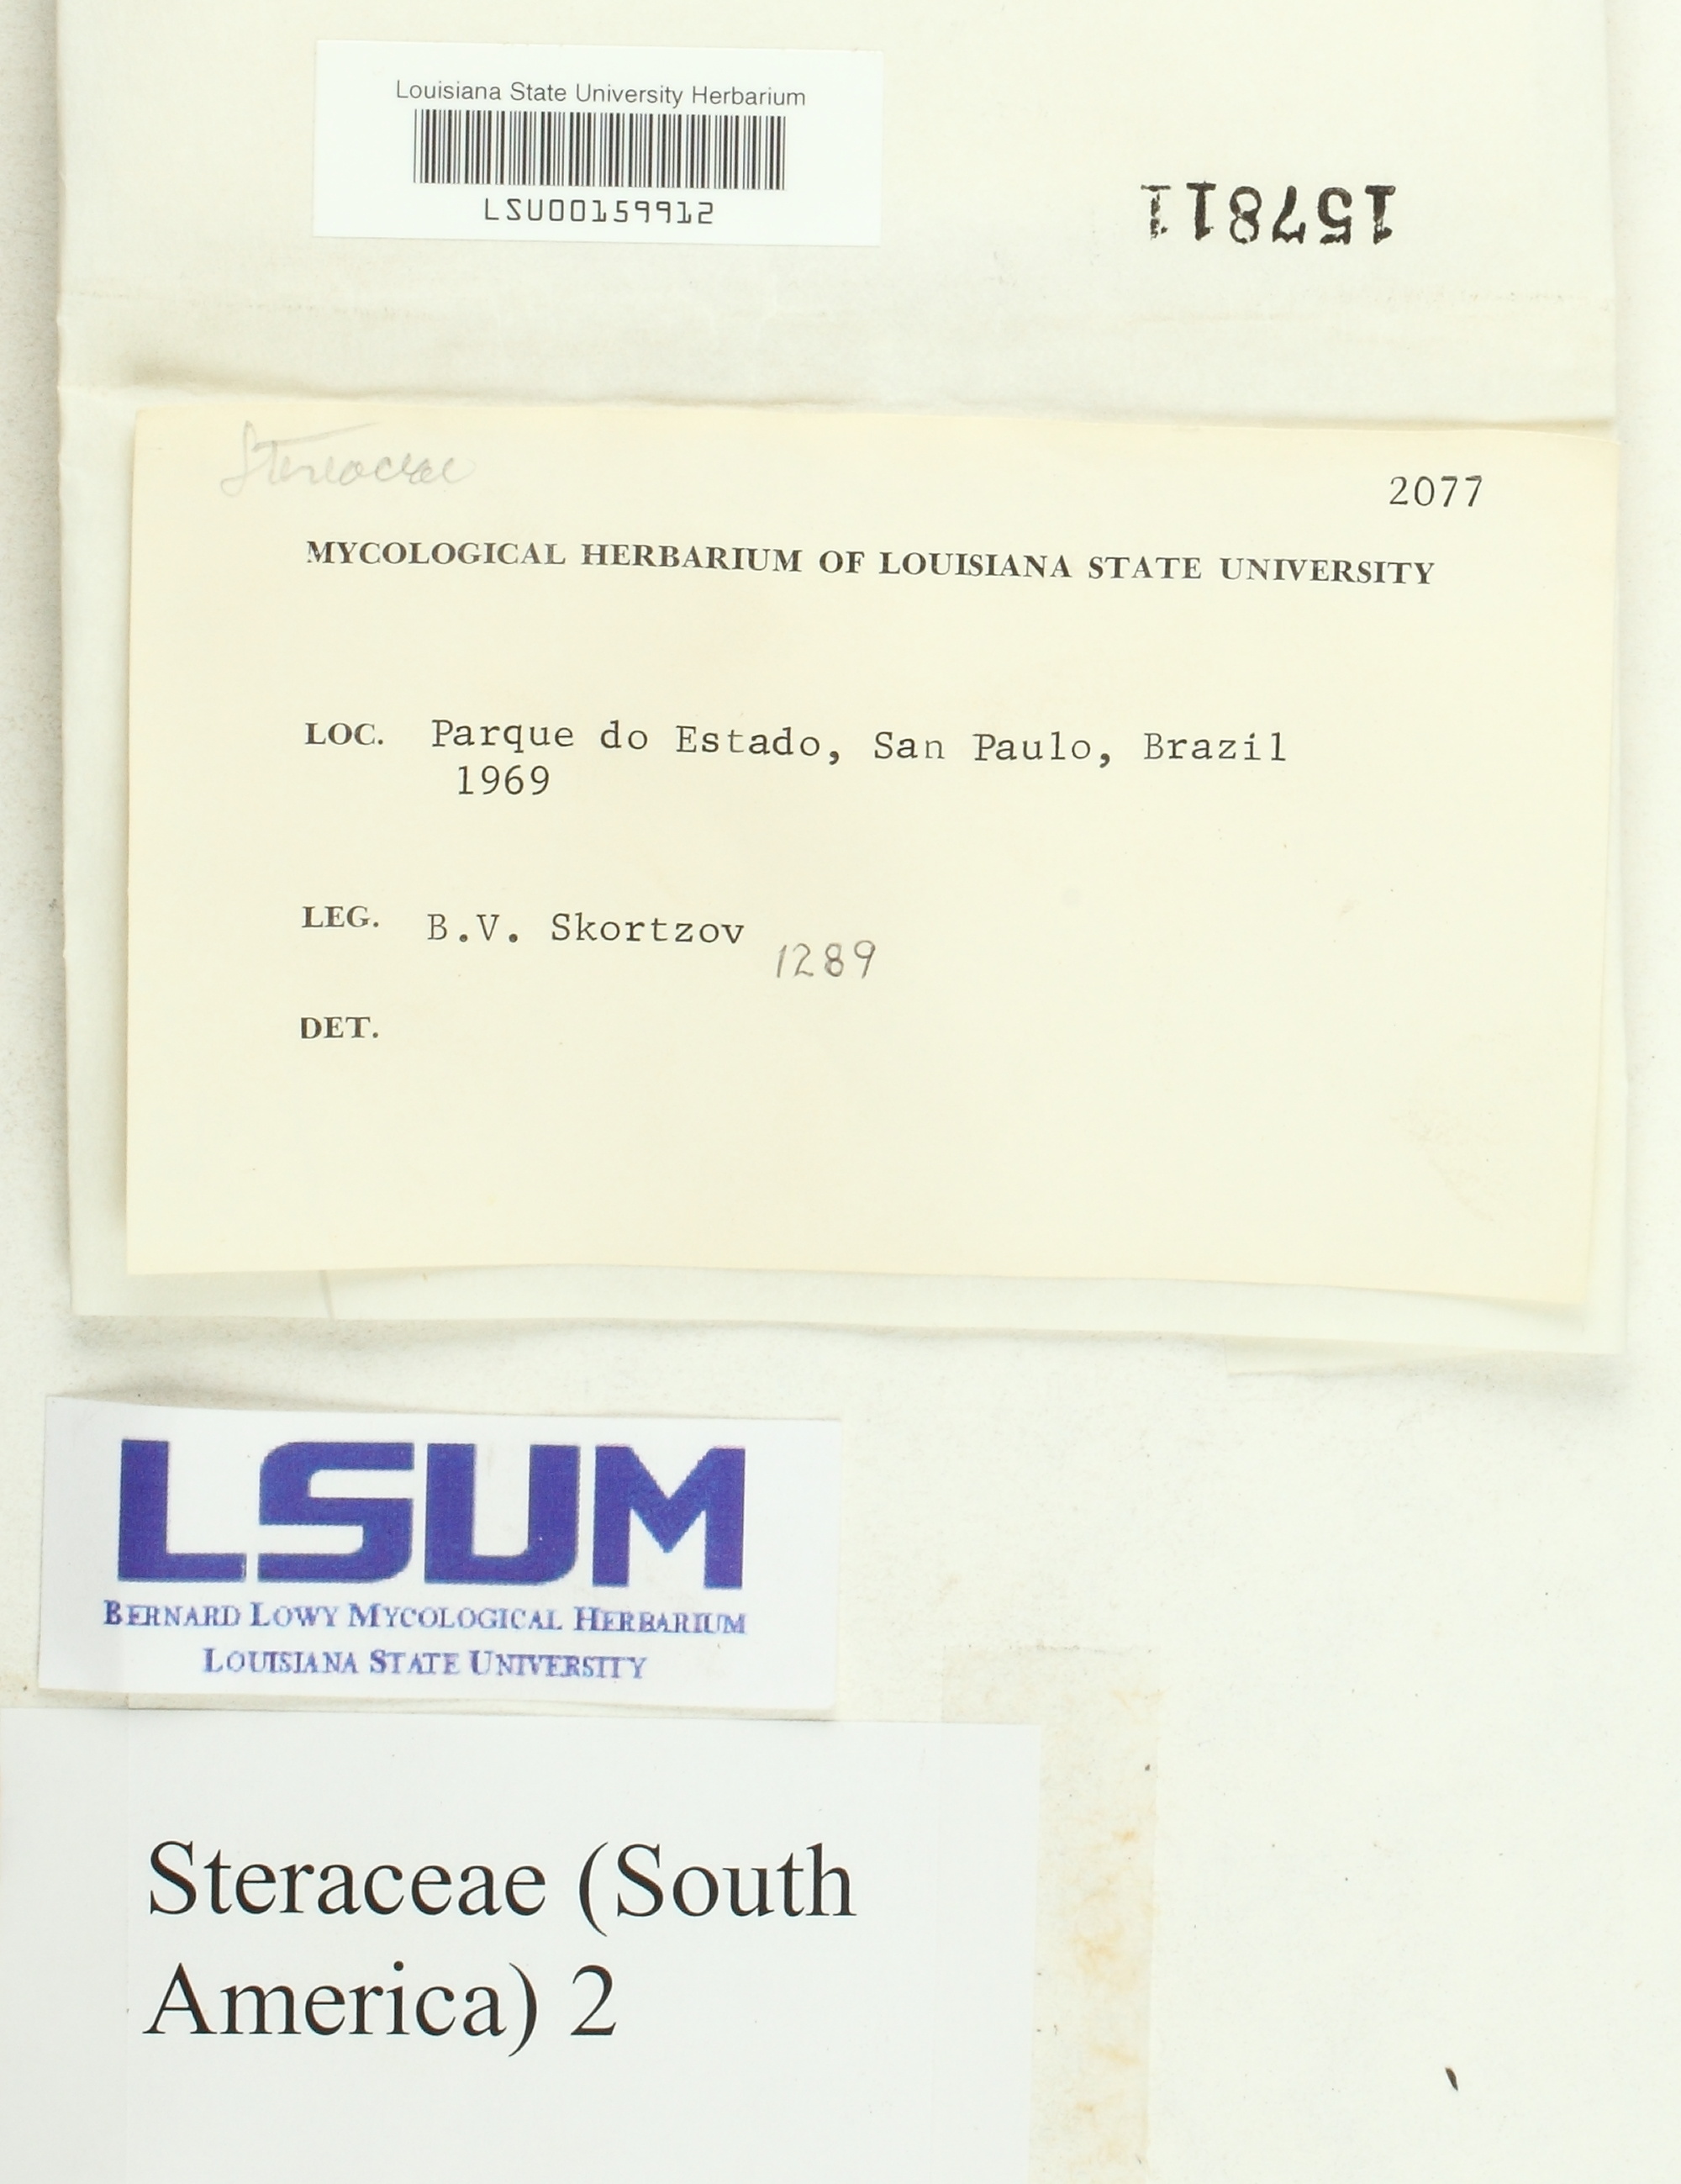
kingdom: Fungi
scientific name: Fungi
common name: Fungi
